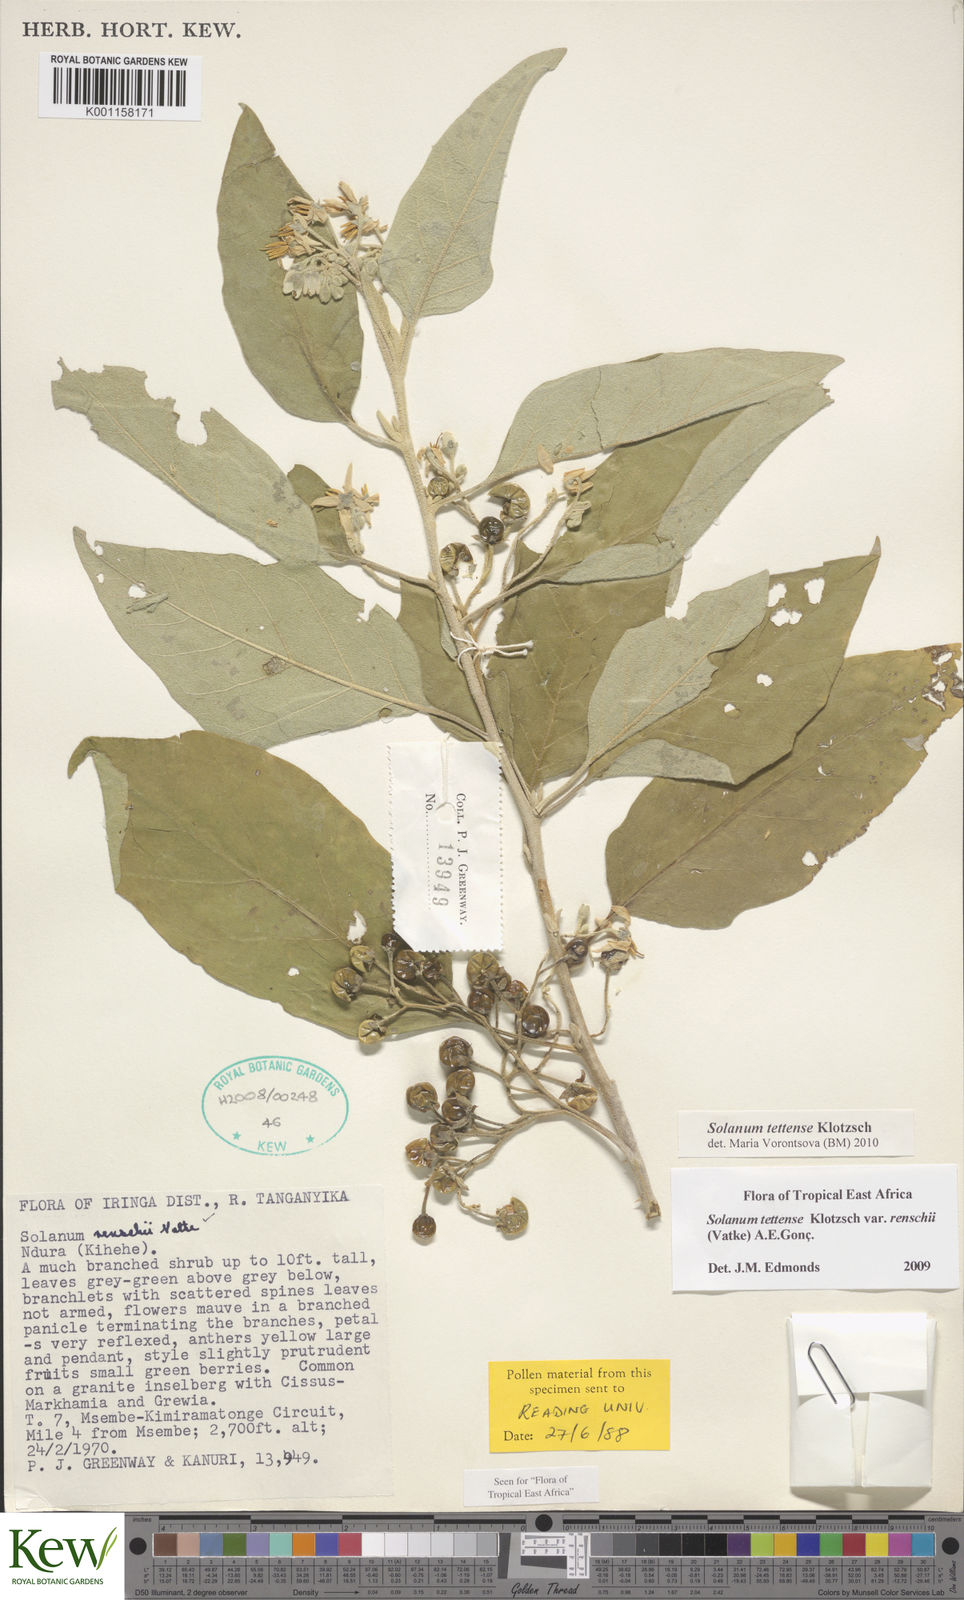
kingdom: Plantae
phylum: Tracheophyta
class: Magnoliopsida
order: Solanales
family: Solanaceae
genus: Solanum
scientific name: Solanum tettense
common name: Mozambique bitter apple
